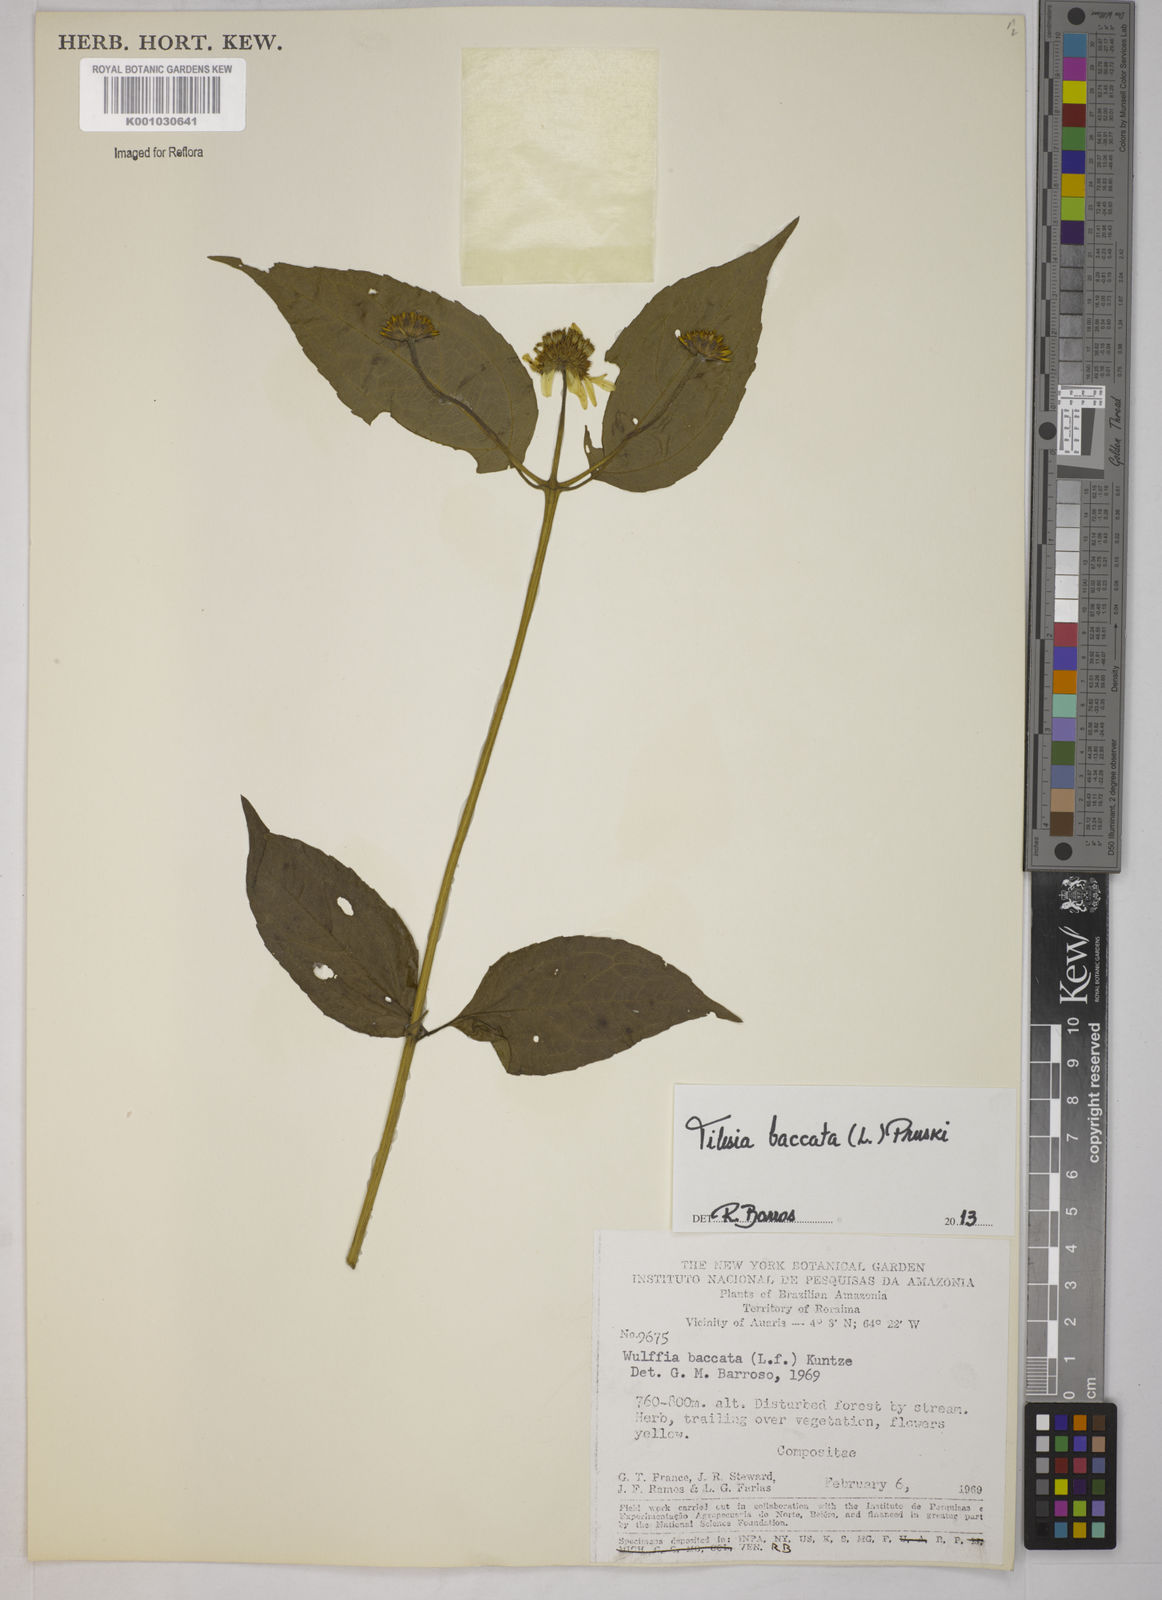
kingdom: Plantae
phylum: Tracheophyta
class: Magnoliopsida
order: Asterales
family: Asteraceae
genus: Tilesia
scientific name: Tilesia baccata
